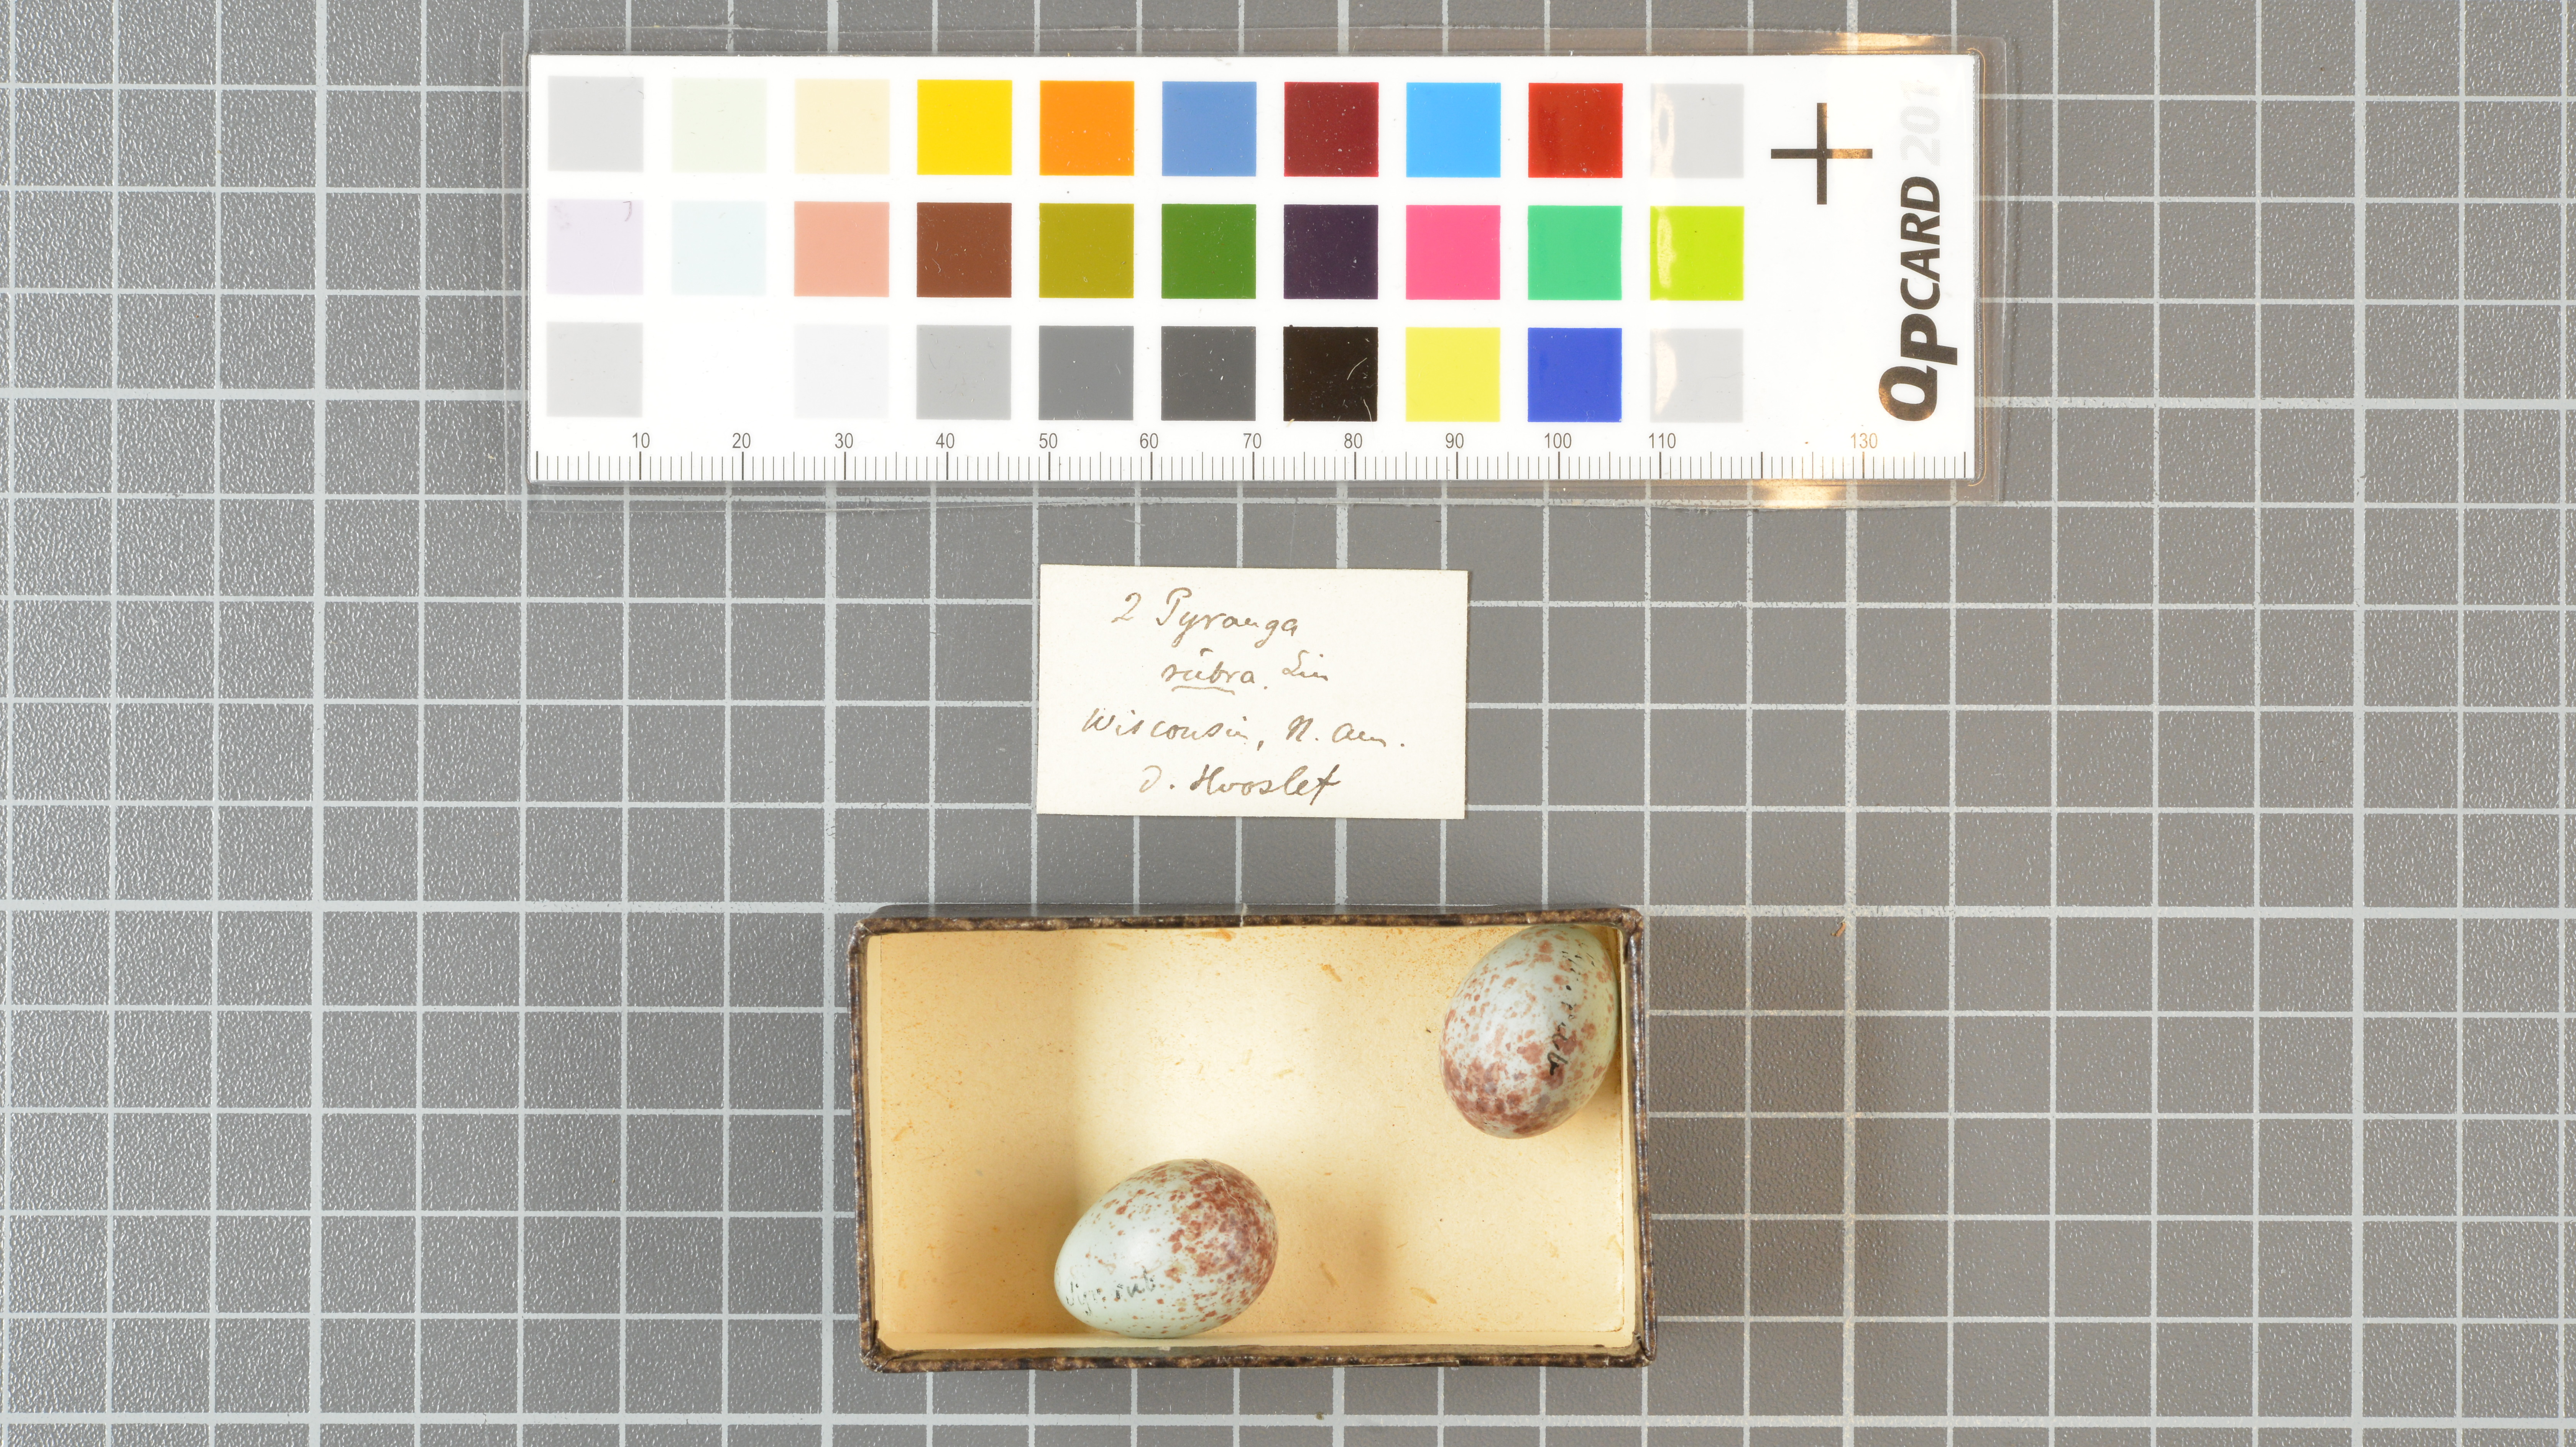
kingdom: Animalia
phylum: Chordata
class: Aves
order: Passeriformes
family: Cardinalidae
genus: Piranga
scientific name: Piranga rubra
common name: Summer tanager
